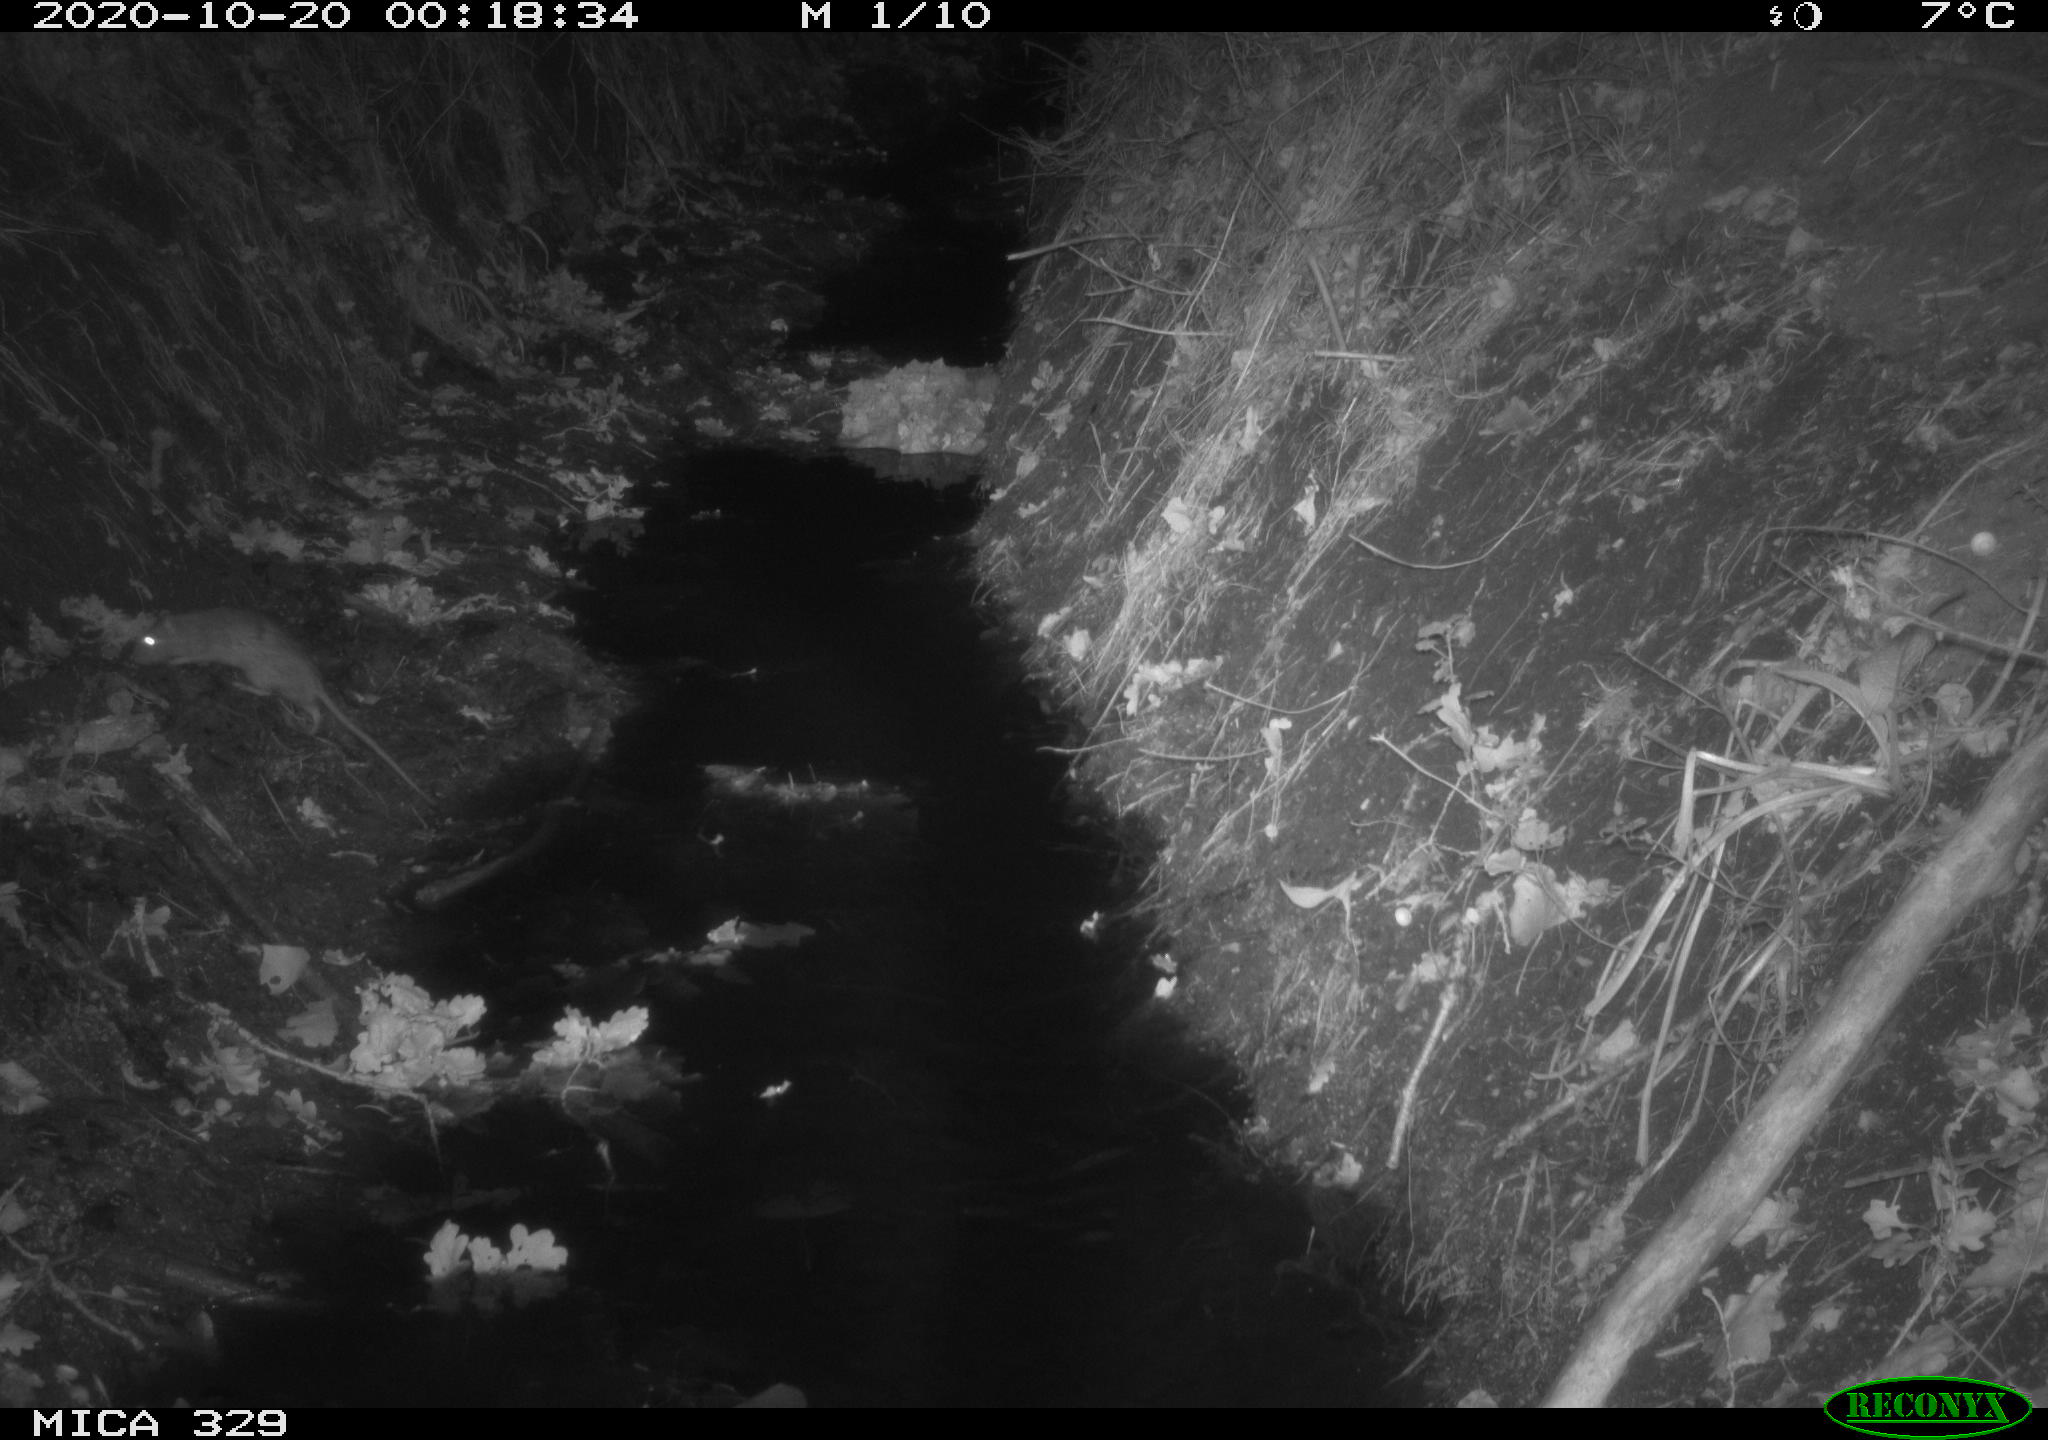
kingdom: Animalia
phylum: Chordata
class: Mammalia
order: Rodentia
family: Muridae
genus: Rattus
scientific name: Rattus norvegicus
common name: Brown rat
